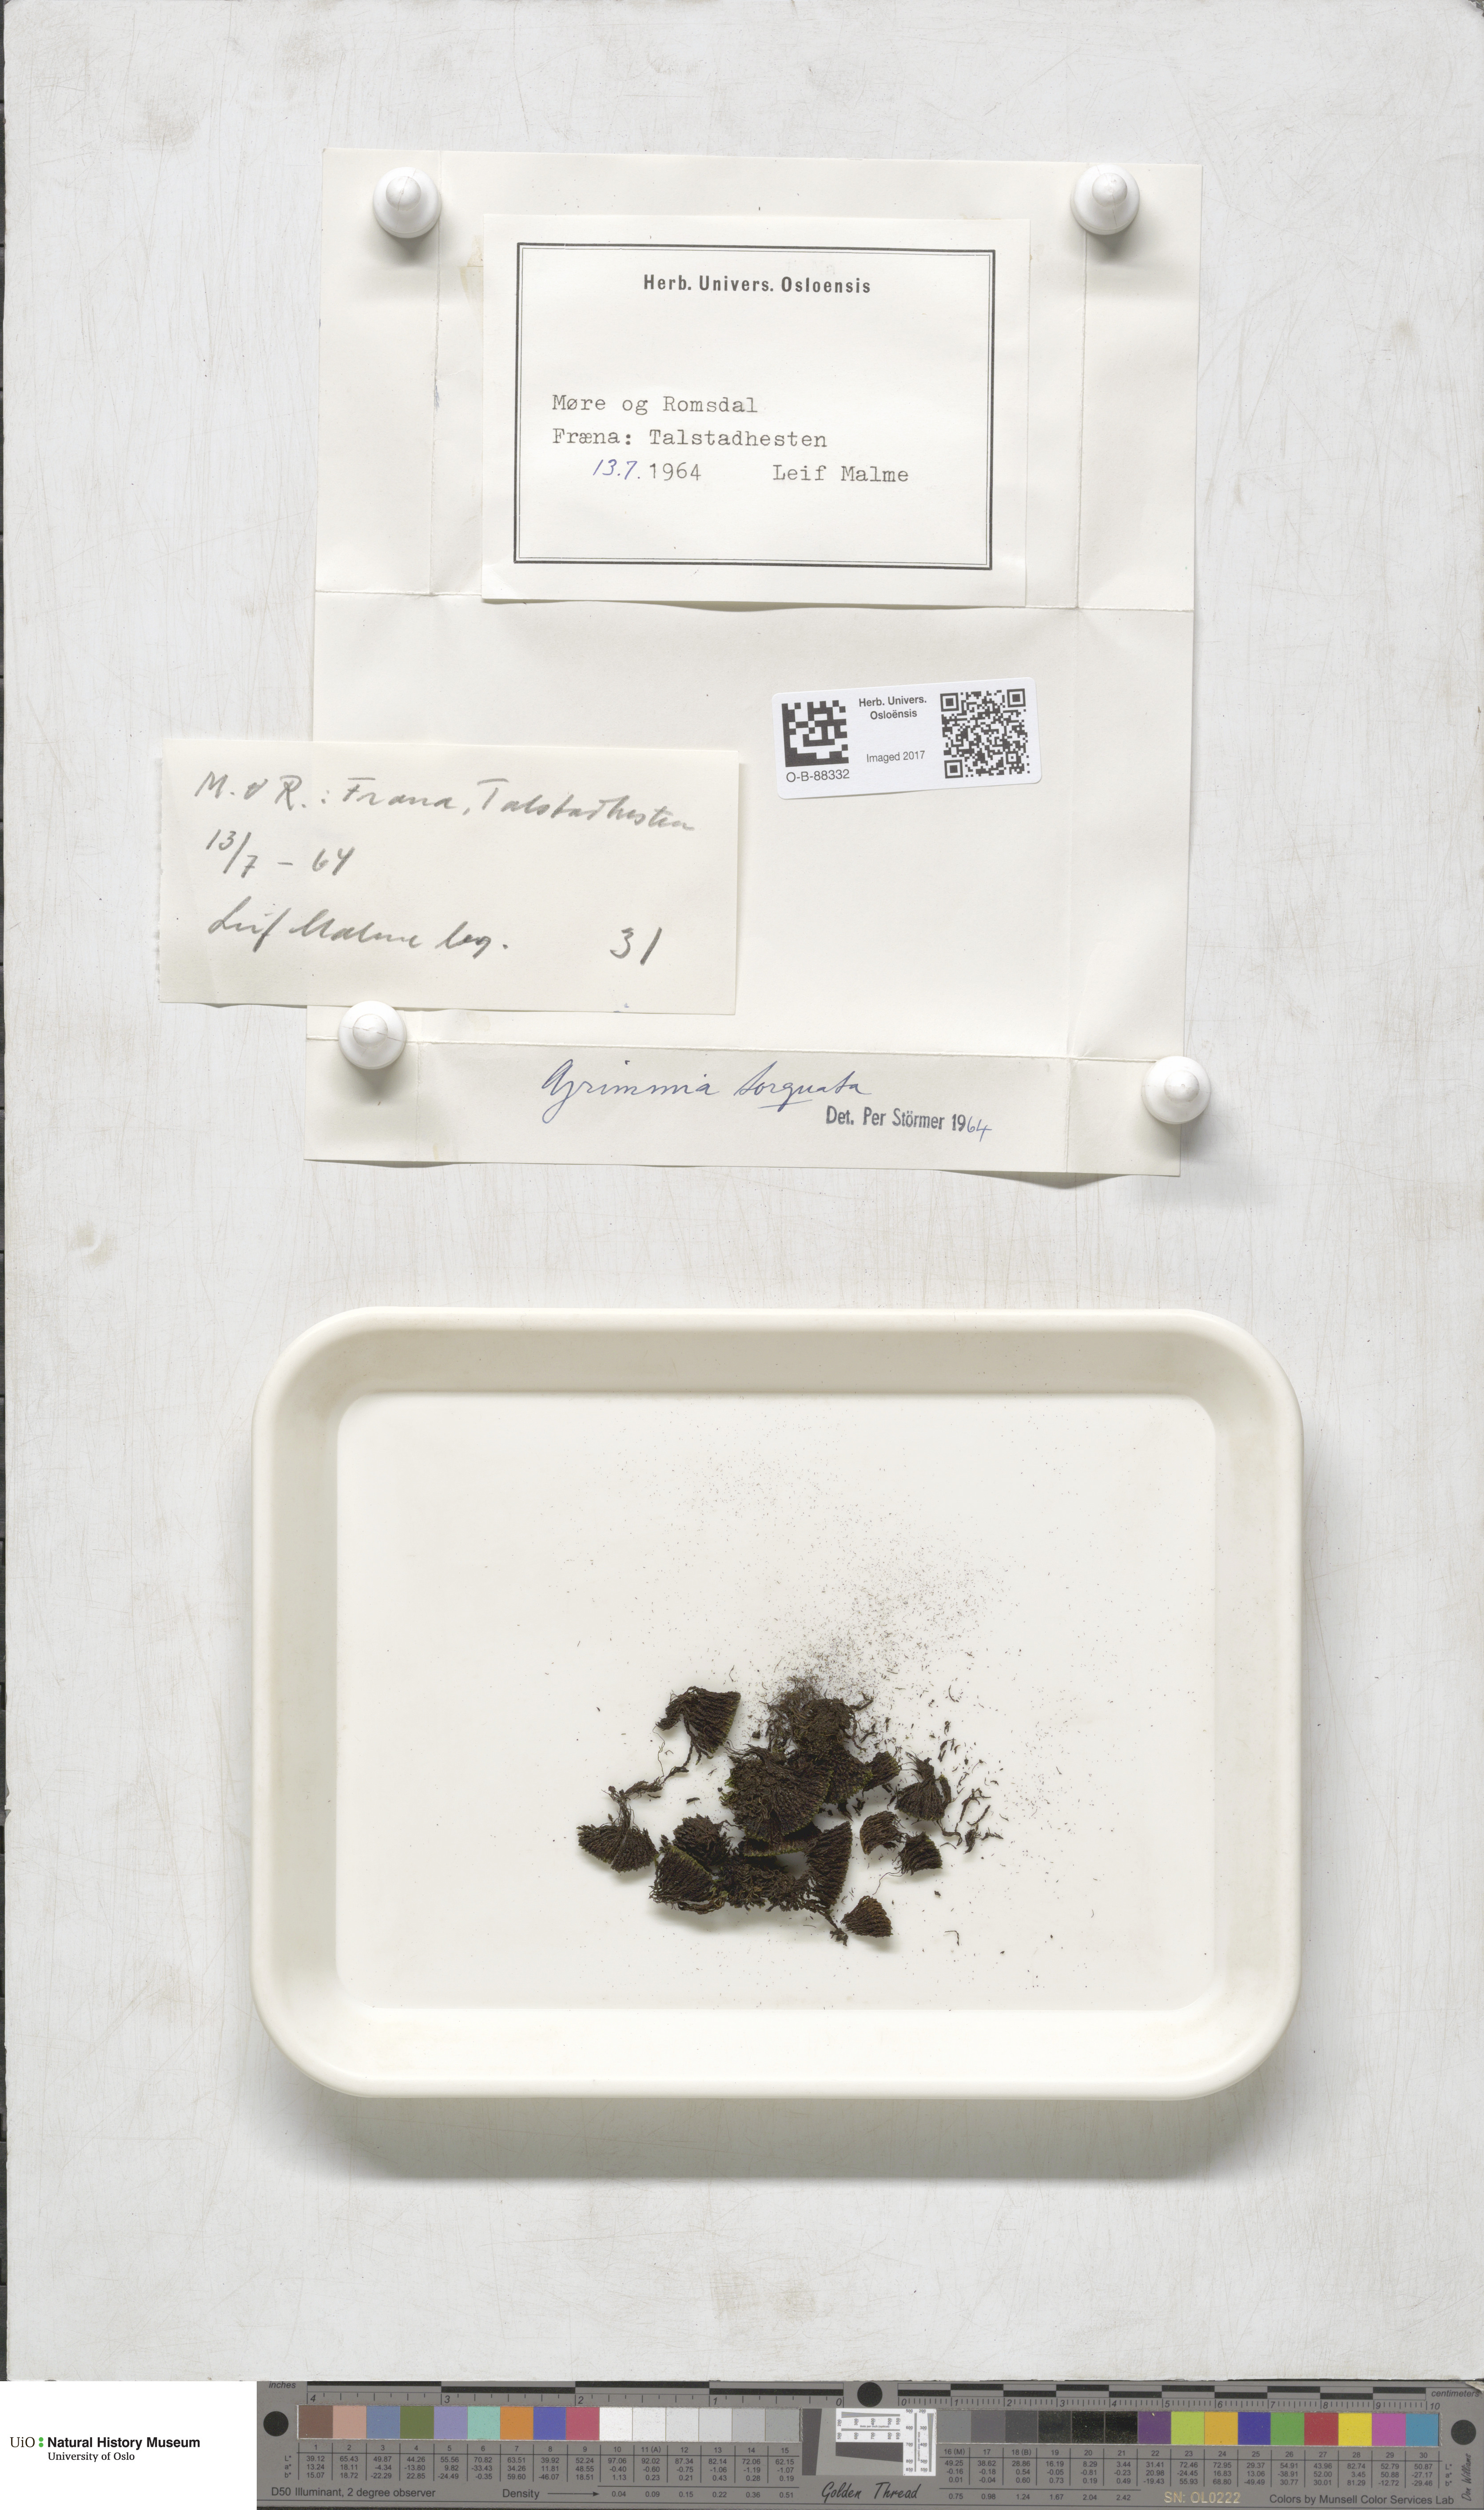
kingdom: Plantae
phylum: Bryophyta
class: Bryopsida
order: Grimmiales
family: Grimmiaceae
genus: Grimmia
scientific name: Grimmia torquata
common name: Twisted grimmia
